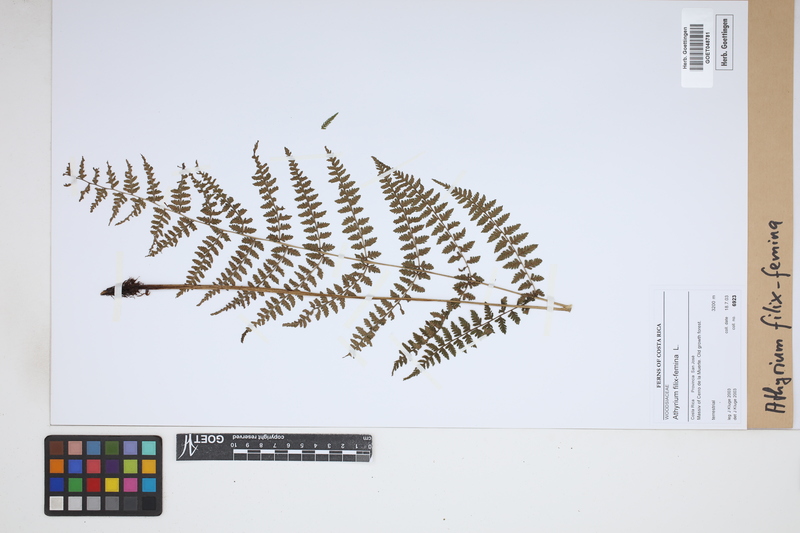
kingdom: Plantae
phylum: Tracheophyta
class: Polypodiopsida
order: Polypodiales
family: Athyriaceae
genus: Athyrium
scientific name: Athyrium filix-femina
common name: Lady fern
